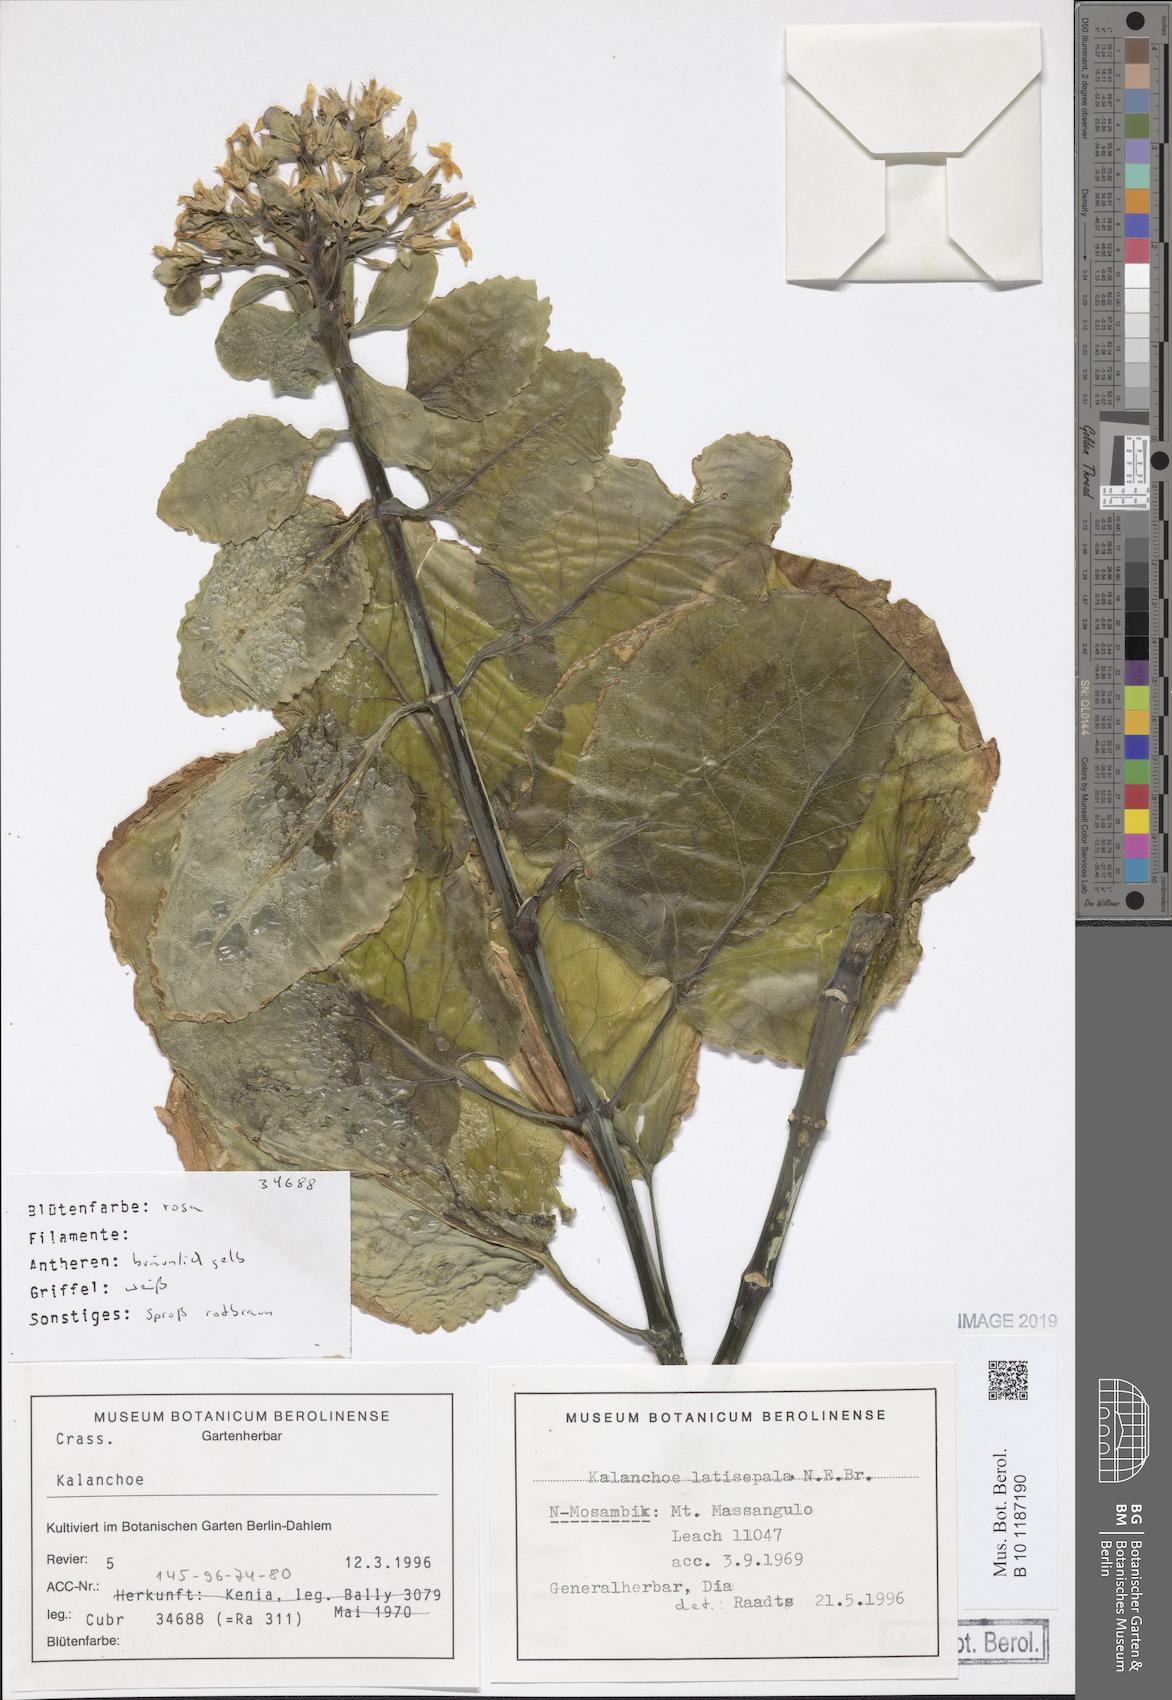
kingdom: Plantae
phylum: Tracheophyta
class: Magnoliopsida
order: Saxifragales
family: Crassulaceae
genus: Kalanchoe
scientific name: Kalanchoe petitiana
